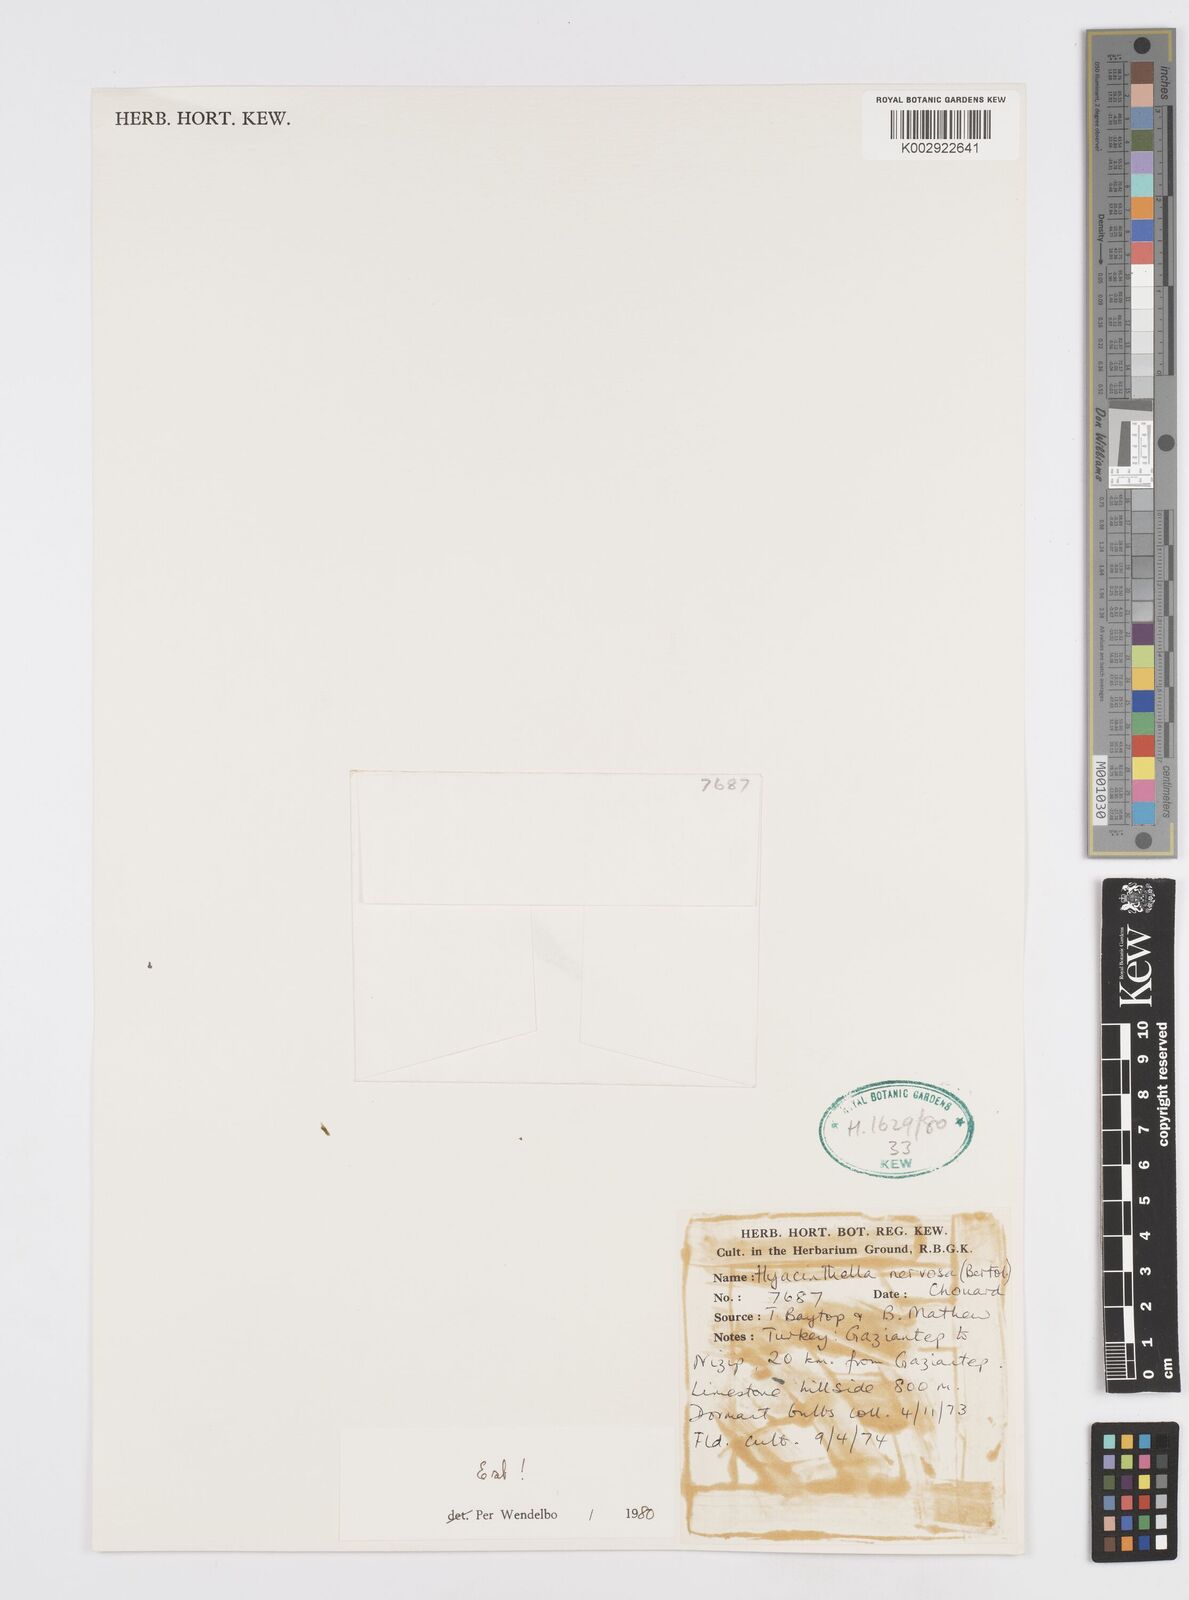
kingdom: Plantae
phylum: Tracheophyta
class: Liliopsida
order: Asparagales
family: Asparagaceae
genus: Hyacinthella
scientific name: Hyacinthella nervosa
